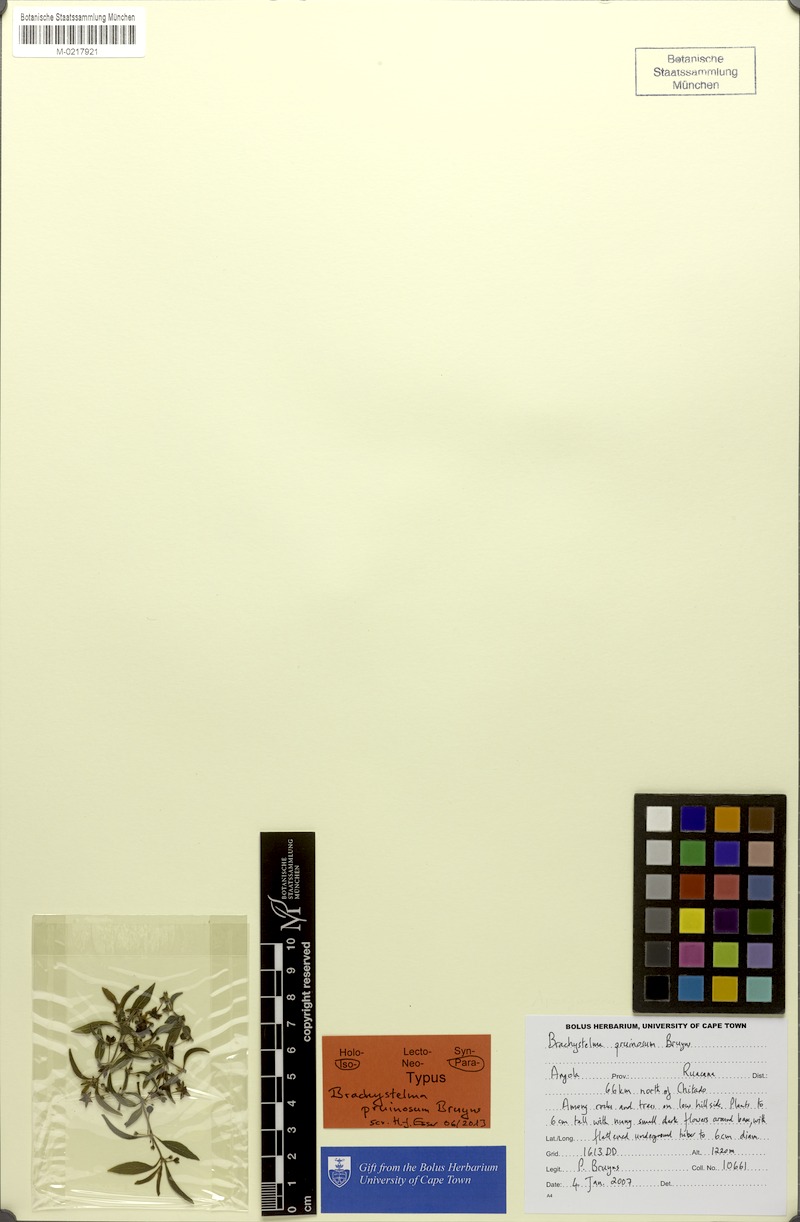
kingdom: Plantae
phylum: Tracheophyta
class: Magnoliopsida
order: Gentianales
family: Apocynaceae
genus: Ceropegia
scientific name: Ceropegia pruinosior
